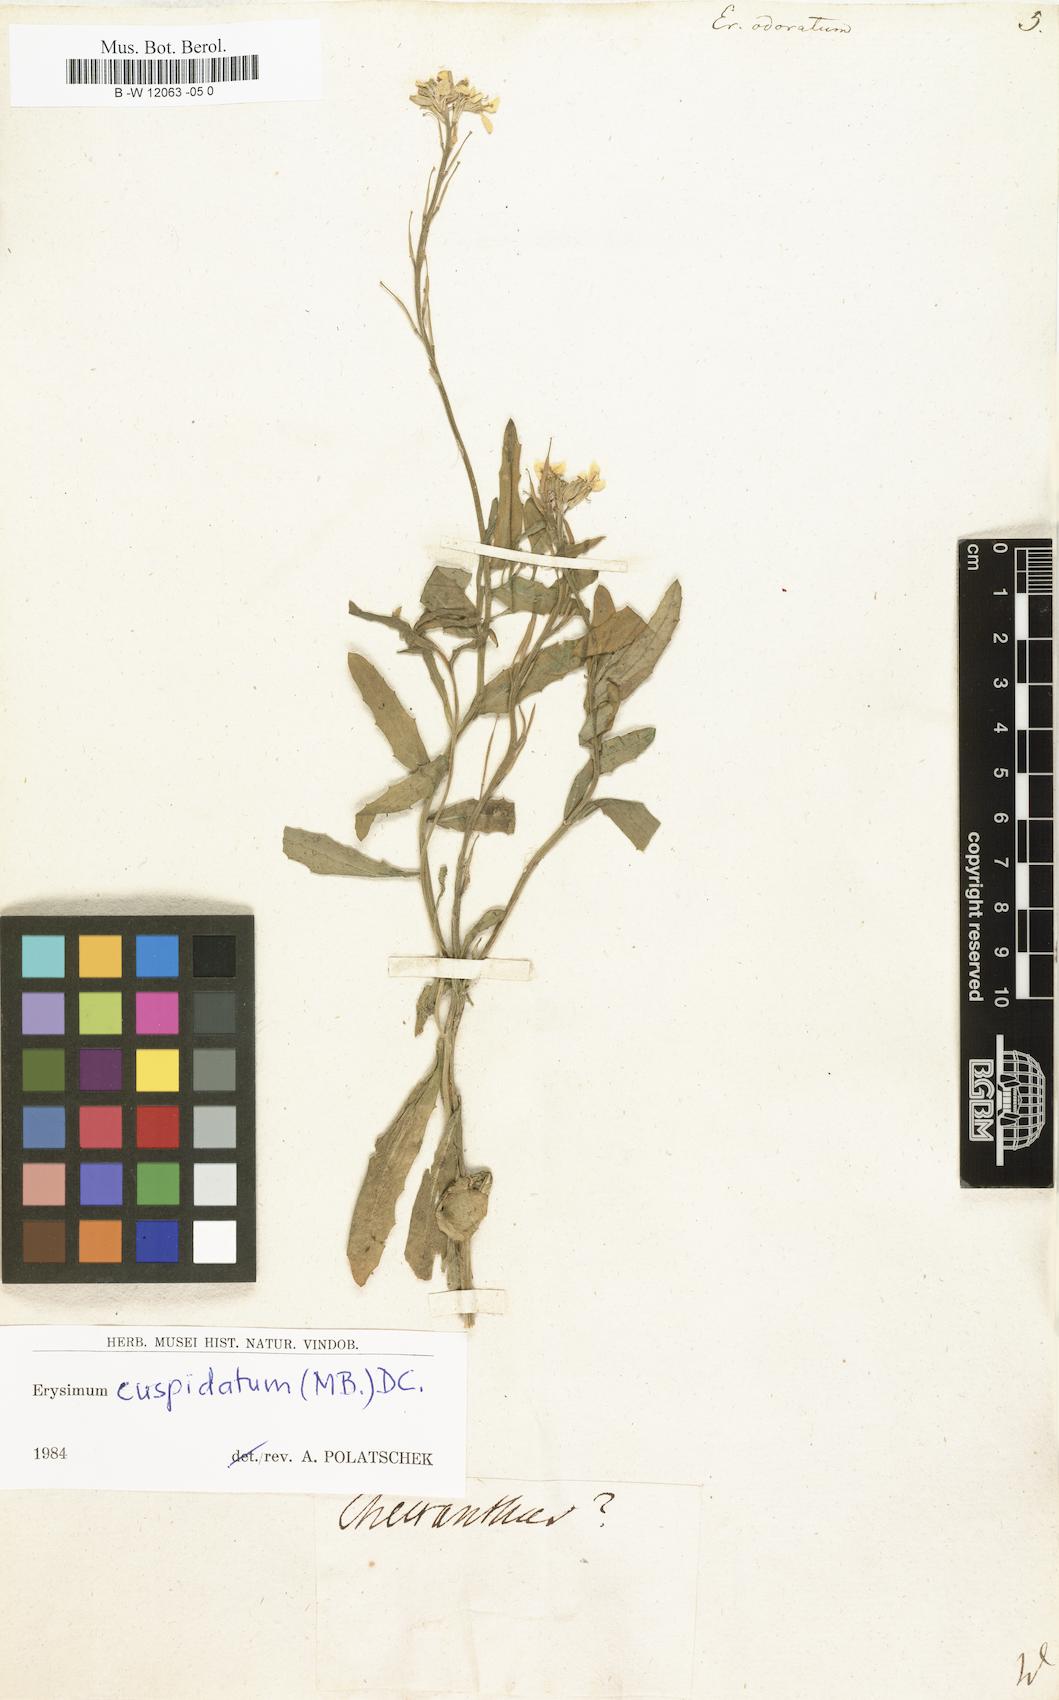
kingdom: Plantae
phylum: Tracheophyta
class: Magnoliopsida
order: Brassicales
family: Brassicaceae
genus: Erysimum
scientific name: Erysimum odoratum
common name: Smelly wallflower
